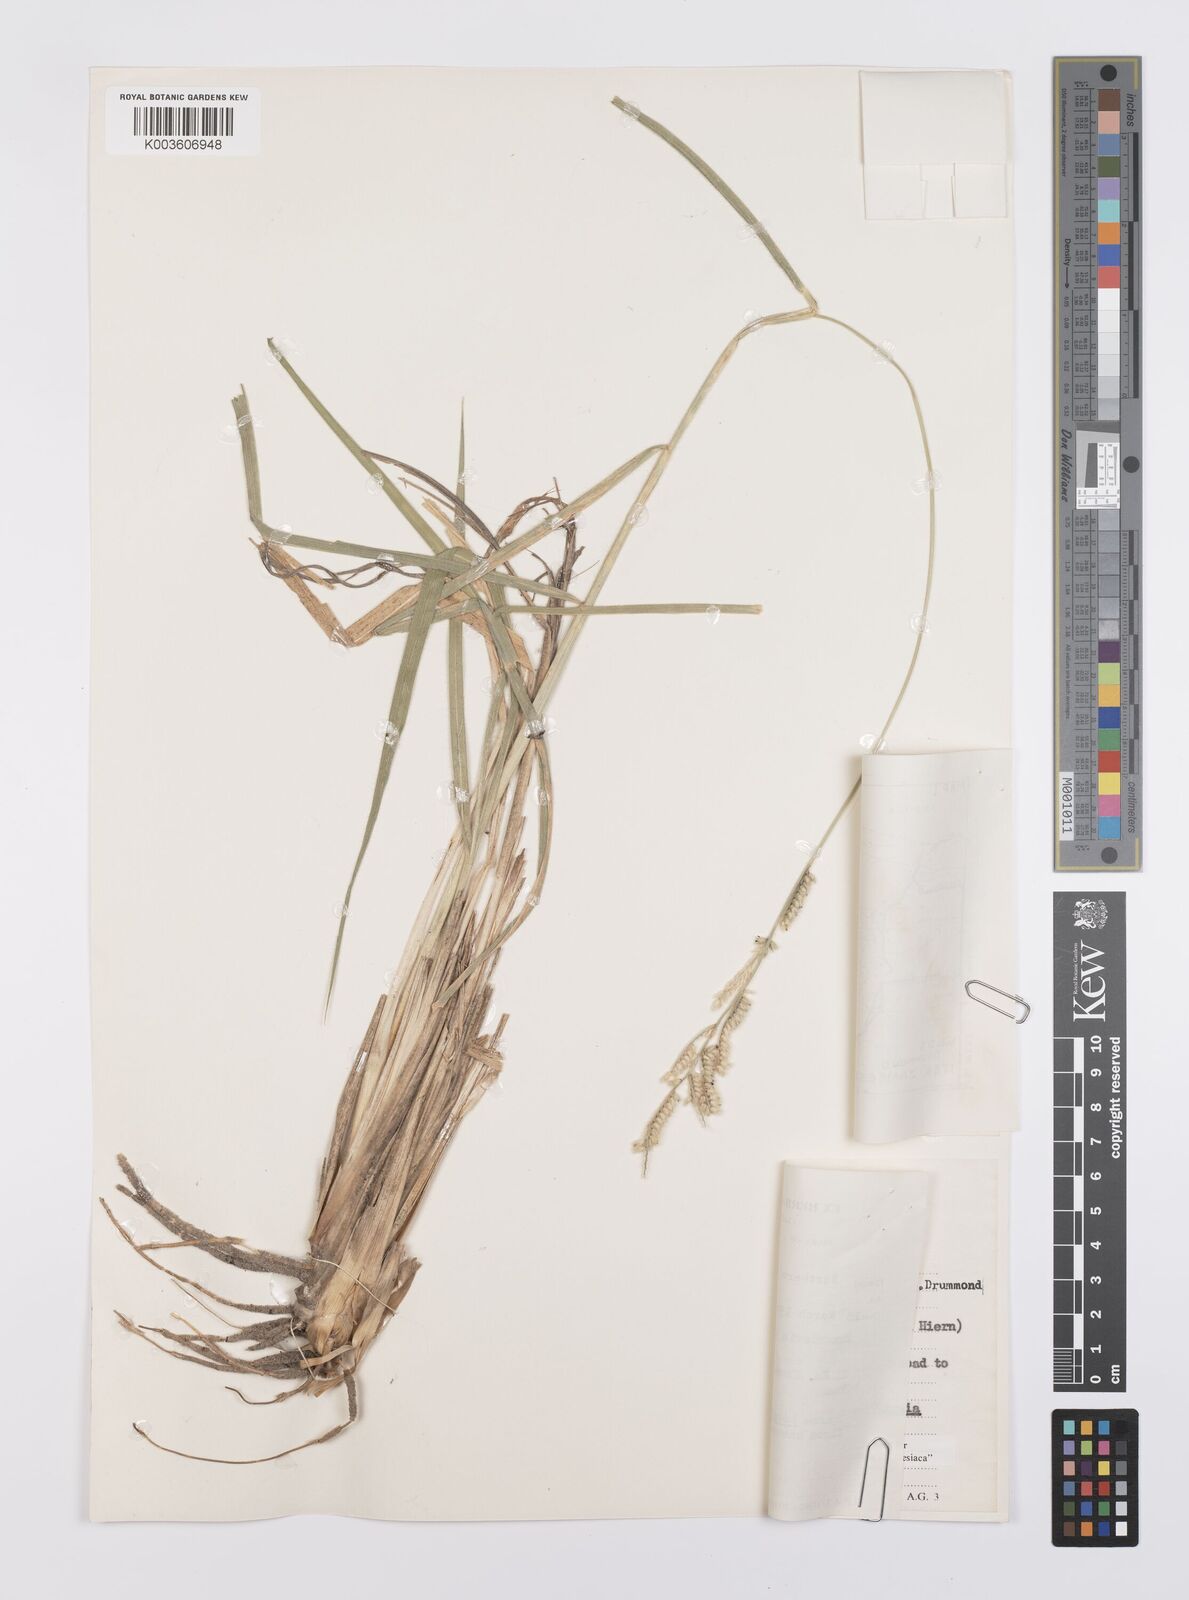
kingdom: Plantae
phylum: Tracheophyta
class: Liliopsida
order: Poales
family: Poaceae
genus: Urochloa
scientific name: Urochloa nigropedata
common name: Spotted signal grass
